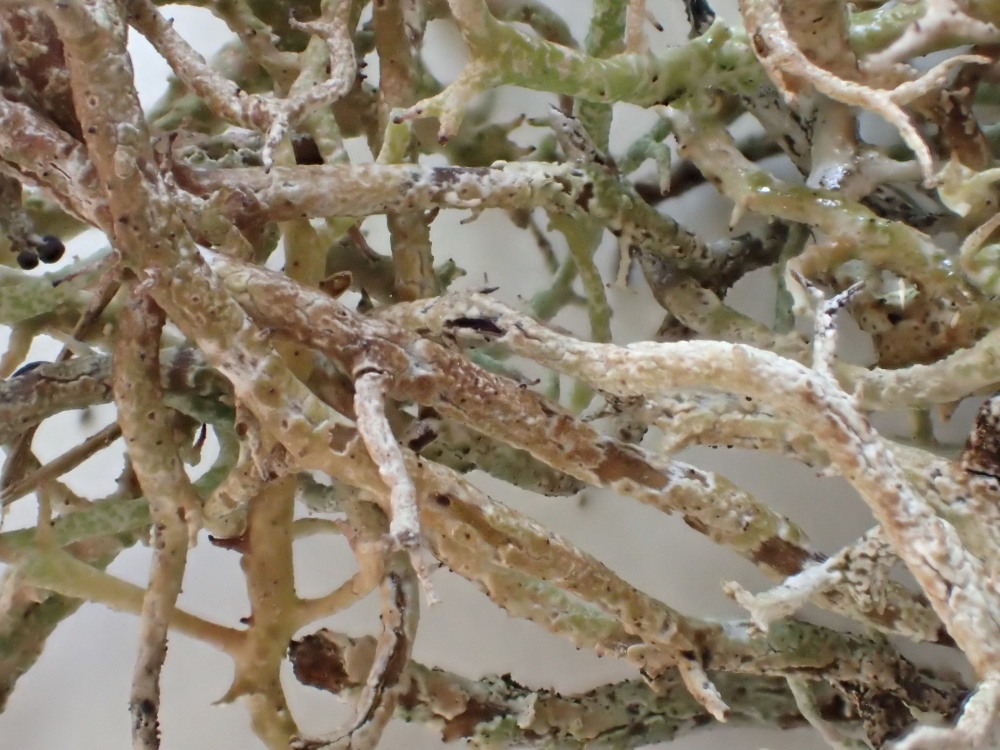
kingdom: Fungi
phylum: Ascomycota
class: Lecanoromycetes
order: Lecanorales
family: Cladoniaceae
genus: Cladonia
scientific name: Cladonia furcata
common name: kløftet bægerlav
